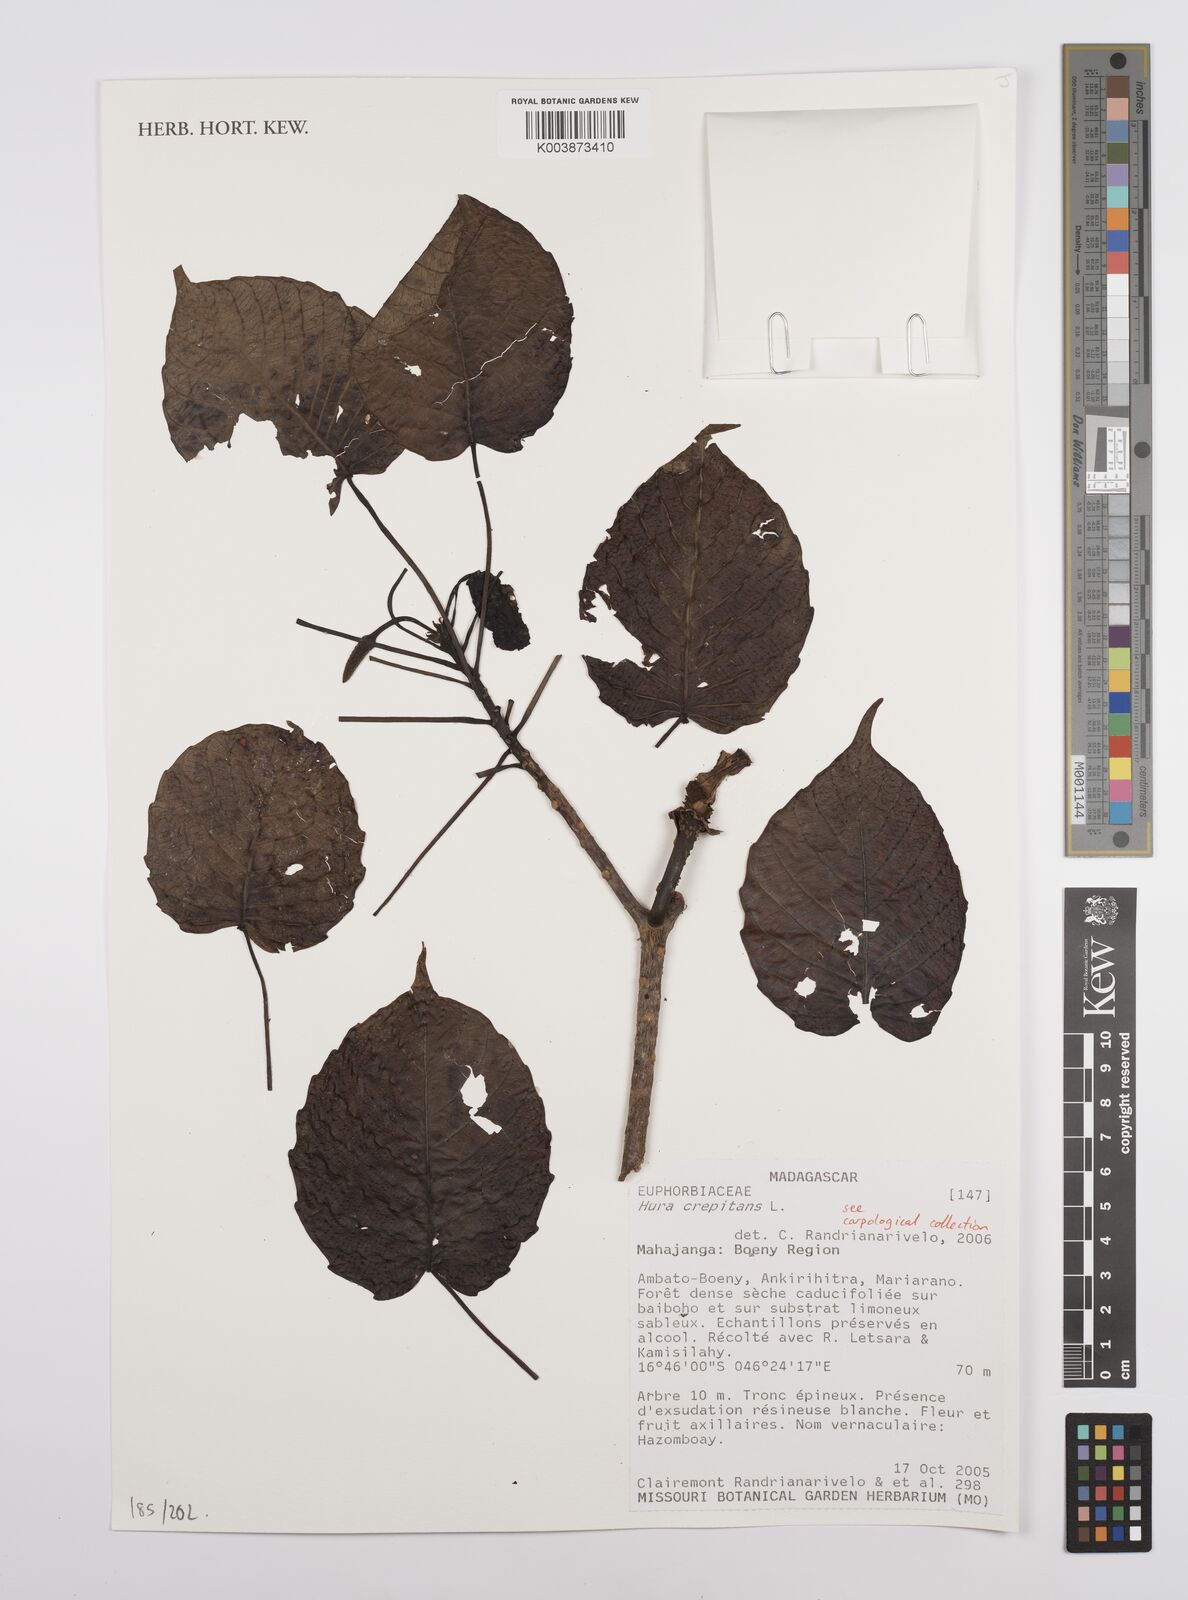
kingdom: Plantae
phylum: Tracheophyta
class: Magnoliopsida
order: Malpighiales
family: Euphorbiaceae
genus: Hura
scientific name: Hura crepitans
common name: Sandboxtree
